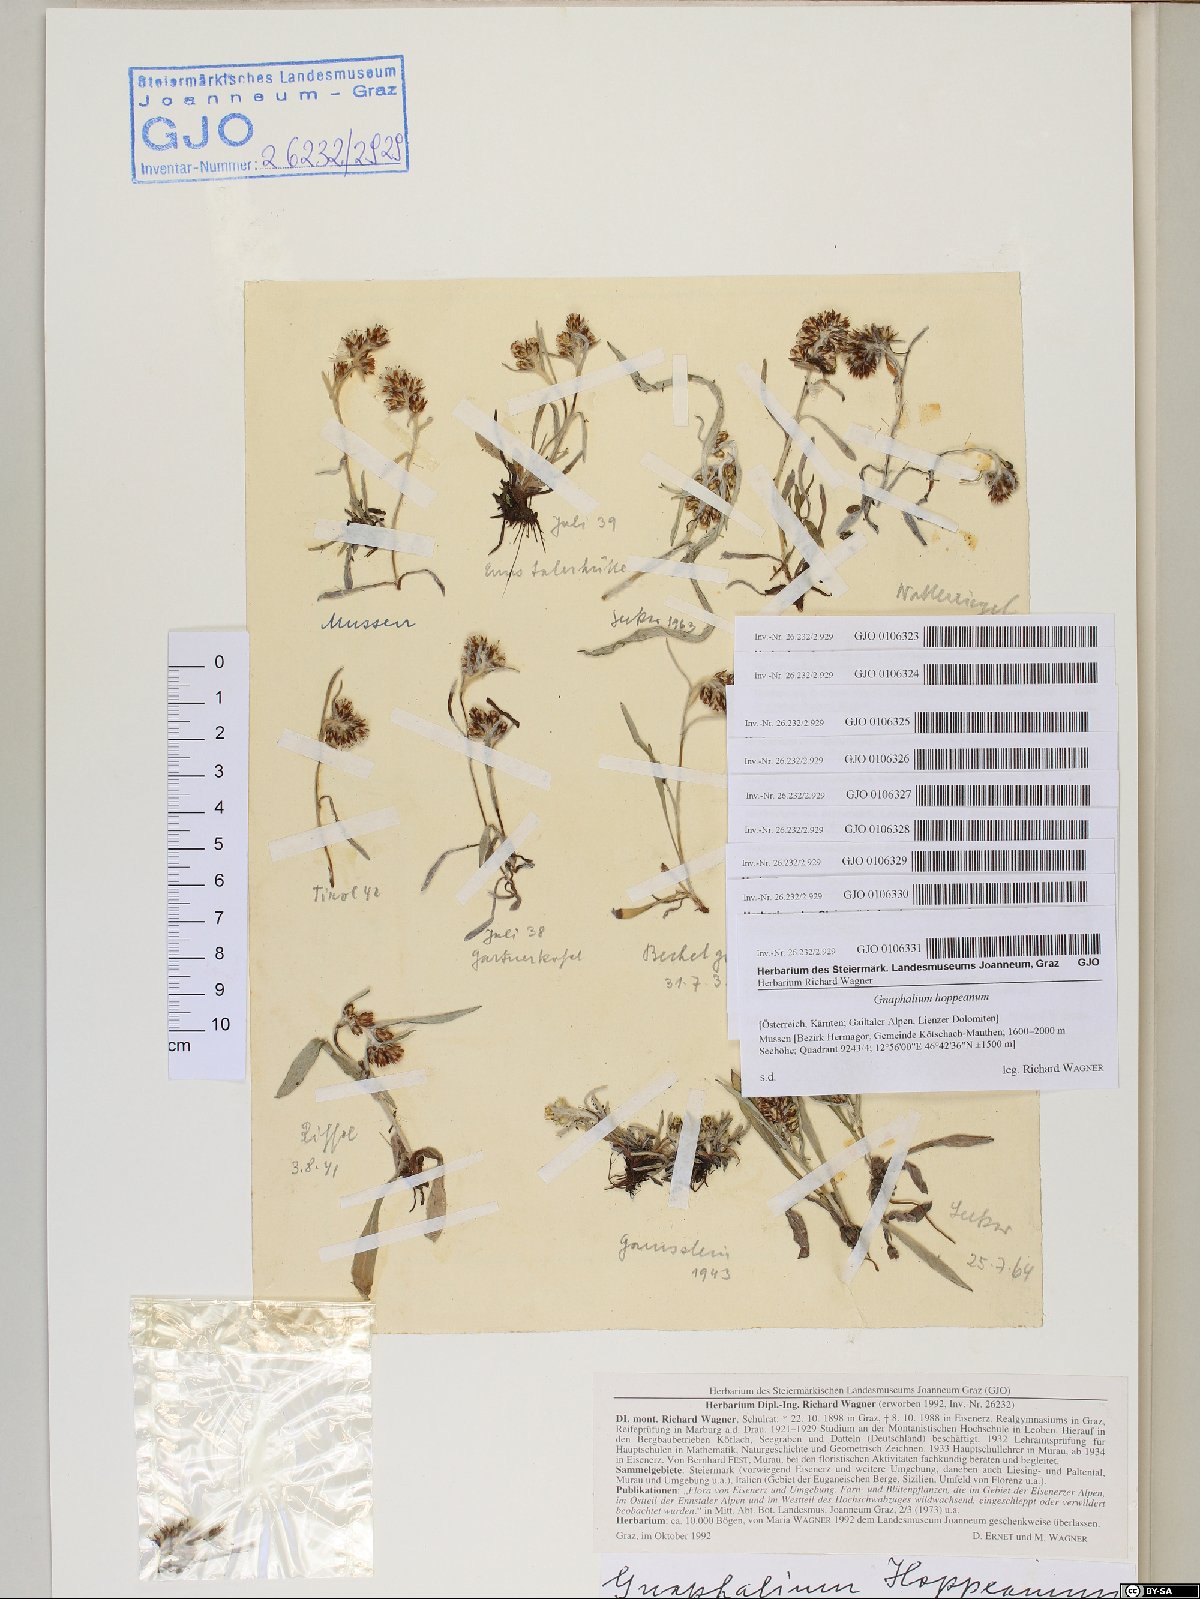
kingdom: Plantae
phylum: Tracheophyta
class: Magnoliopsida
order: Asterales
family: Asteraceae
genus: Omalotheca
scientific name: Omalotheca hoppeana
